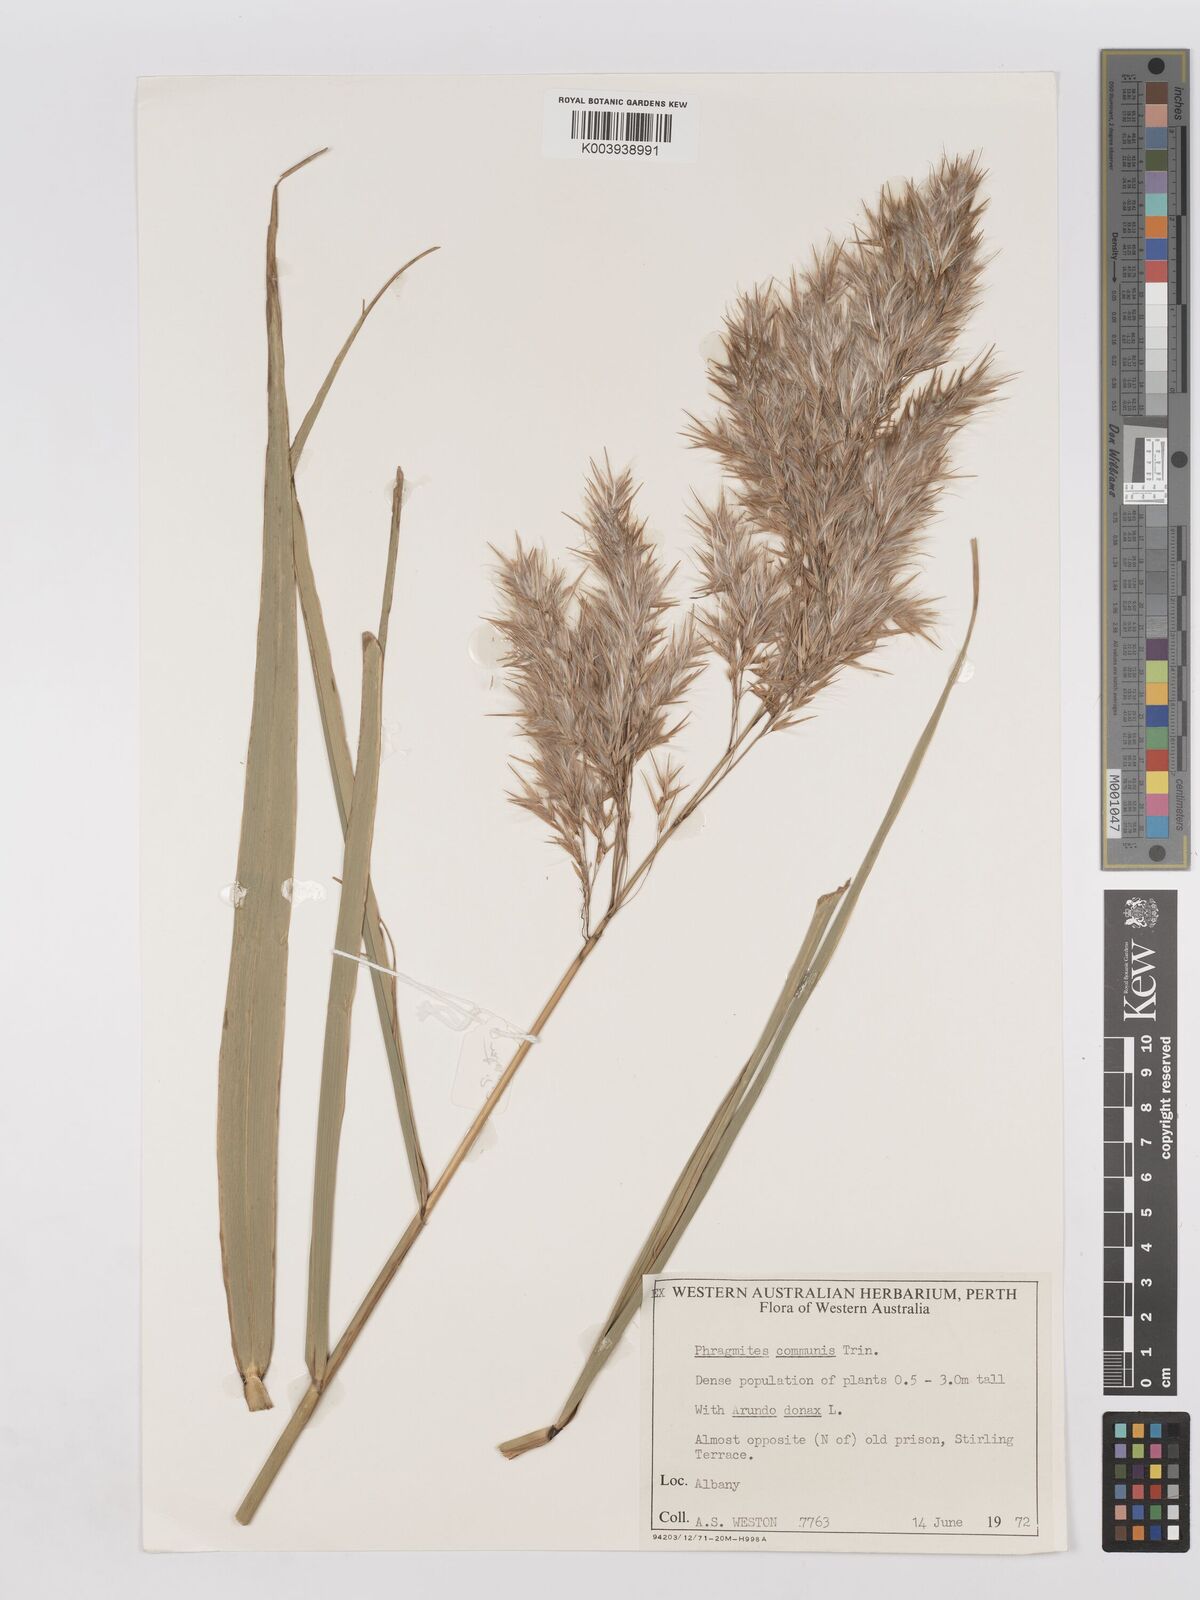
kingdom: Plantae
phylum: Tracheophyta
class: Liliopsida
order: Poales
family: Poaceae
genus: Phragmites
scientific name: Phragmites australis
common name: Common reed
